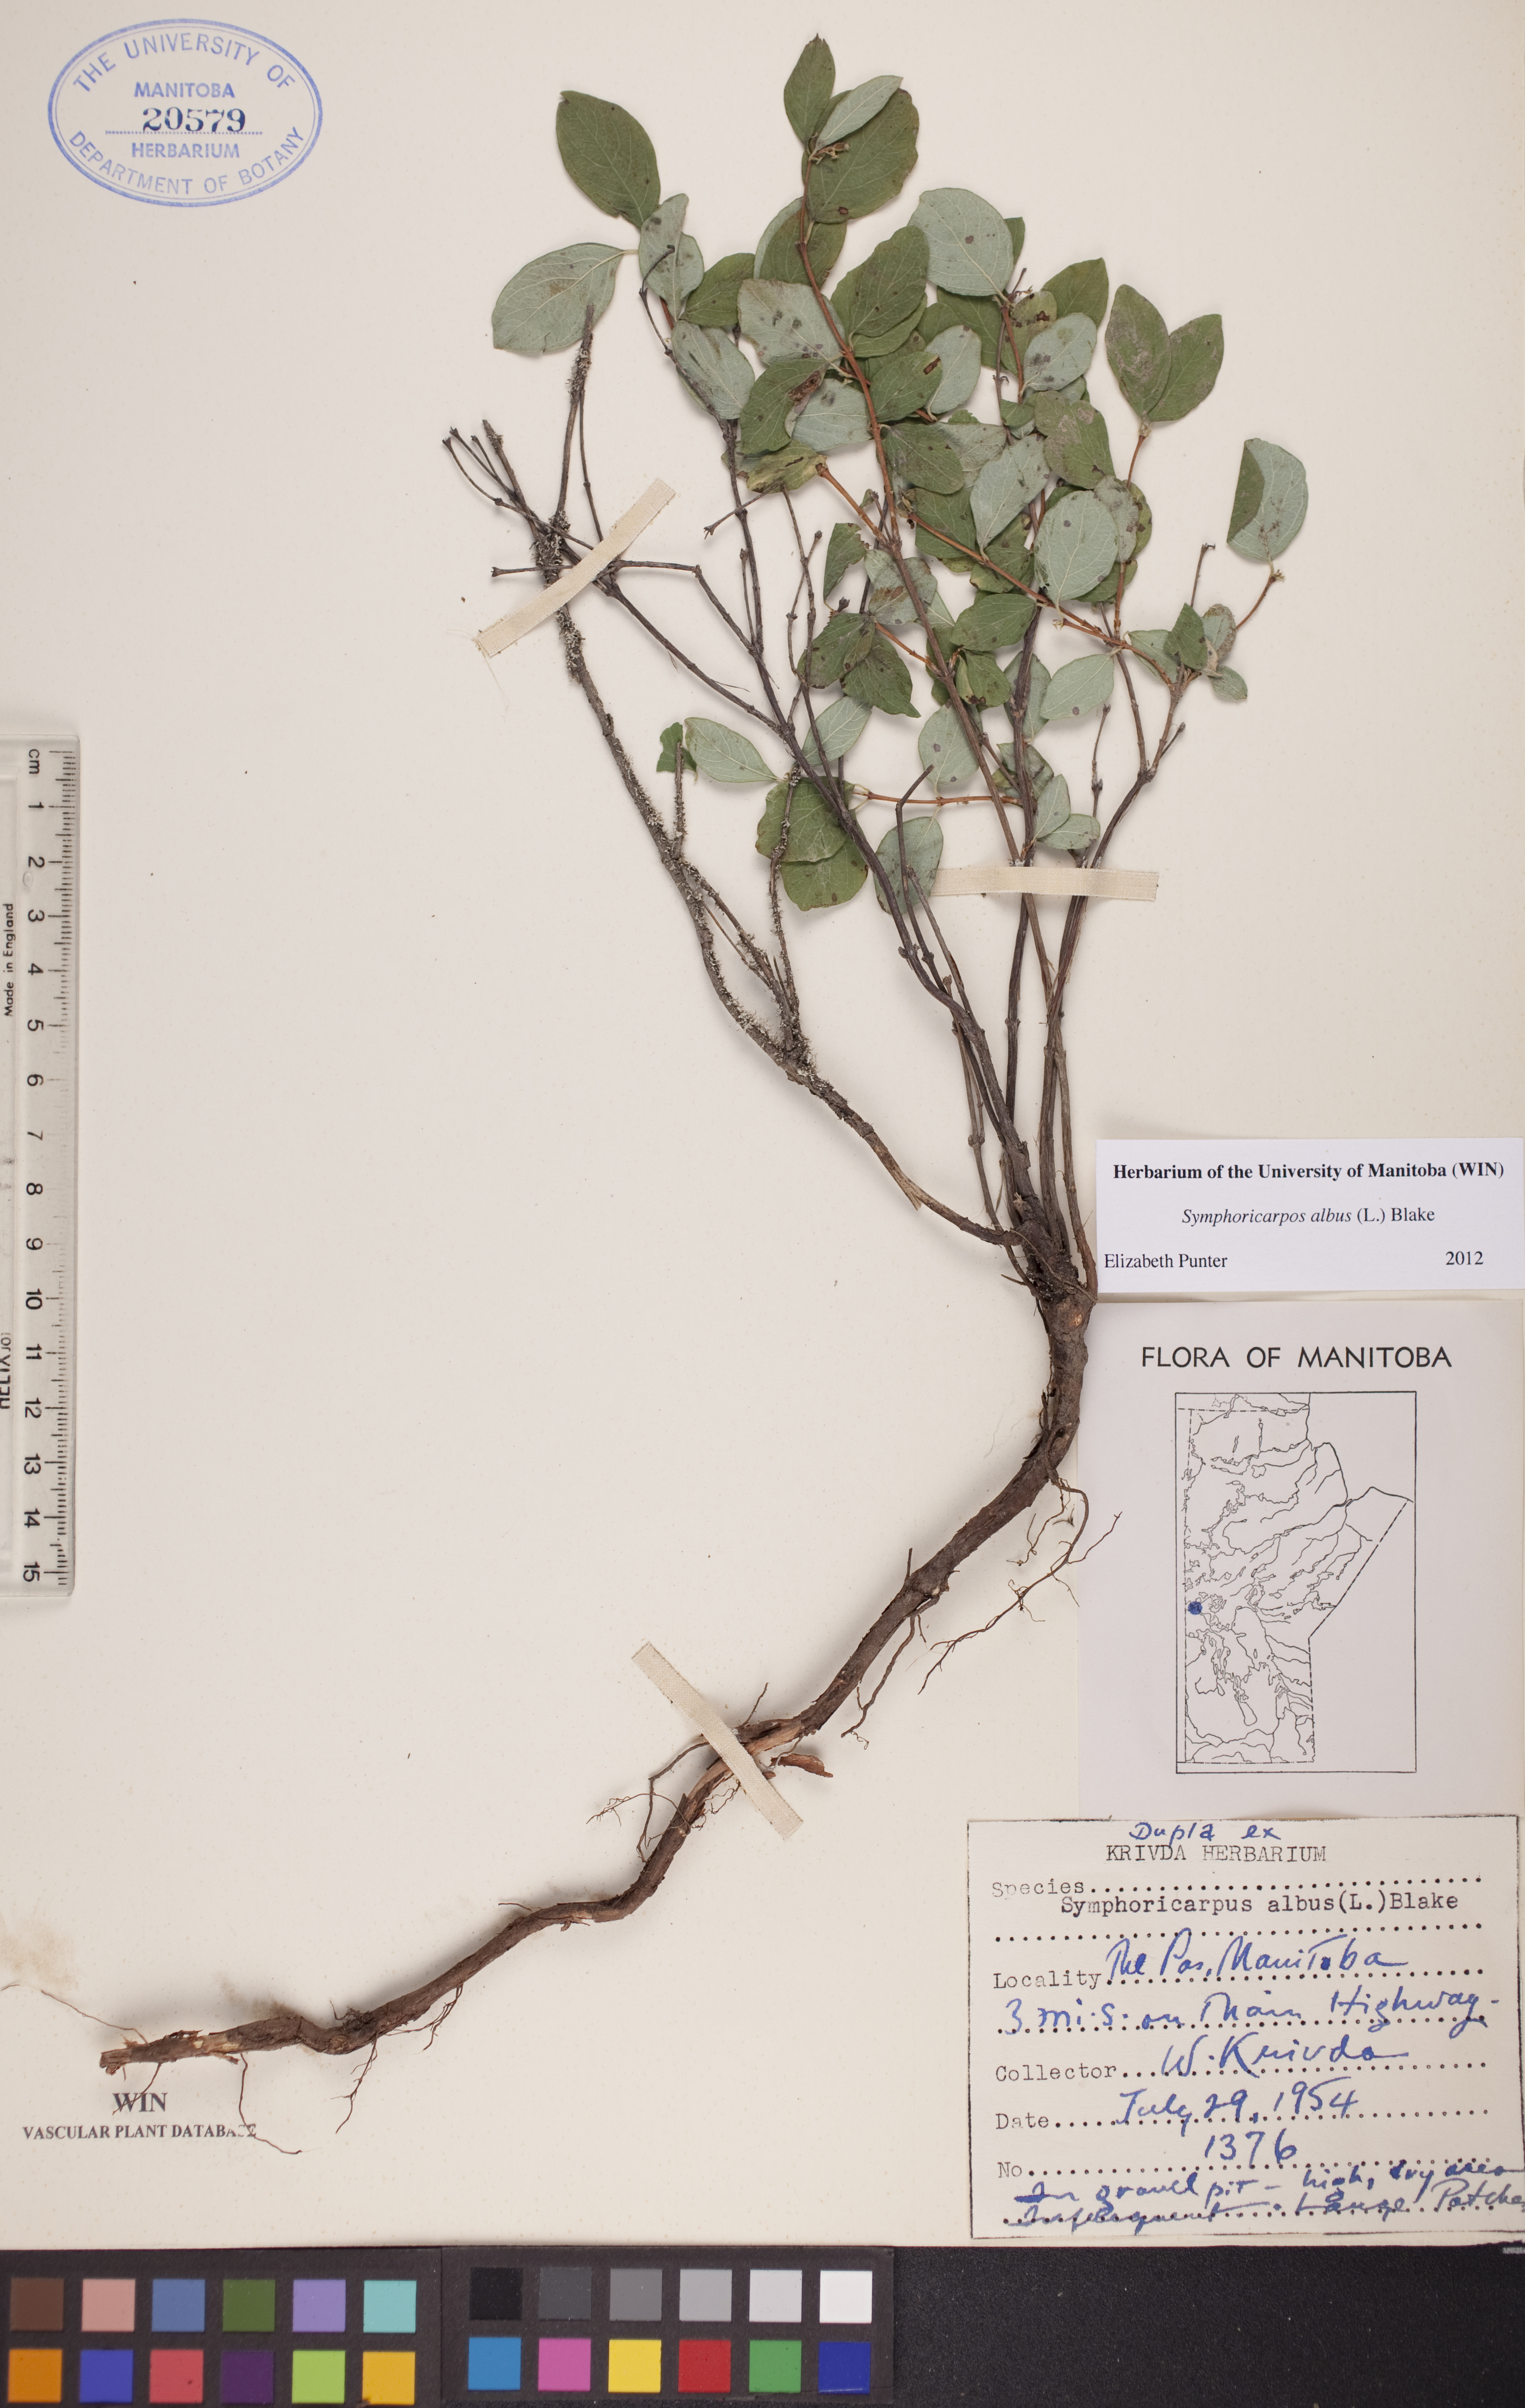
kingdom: Plantae
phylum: Tracheophyta
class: Magnoliopsida
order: Dipsacales
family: Caprifoliaceae
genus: Symphoricarpos
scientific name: Symphoricarpos albus
